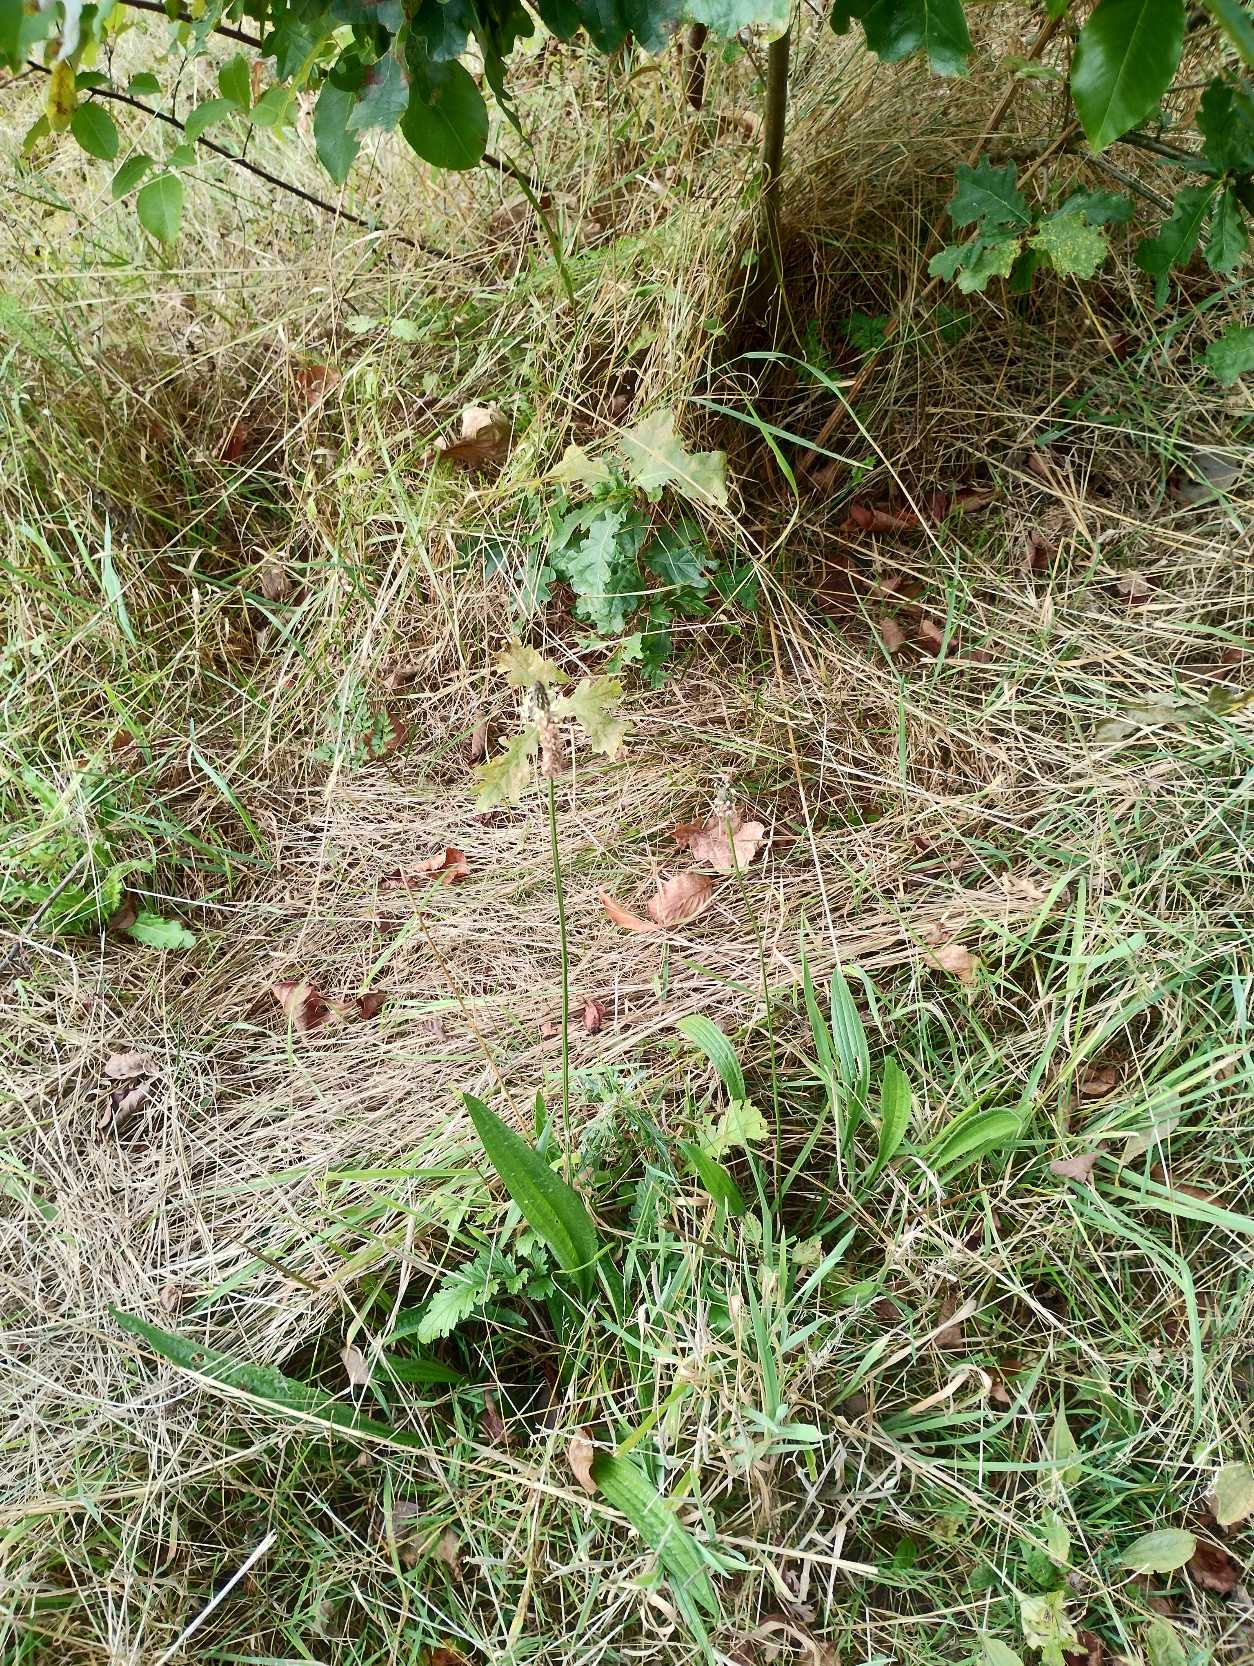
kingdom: Plantae
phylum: Tracheophyta
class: Magnoliopsida
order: Lamiales
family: Plantaginaceae
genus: Plantago
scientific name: Plantago lanceolata
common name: Lancet-vejbred
